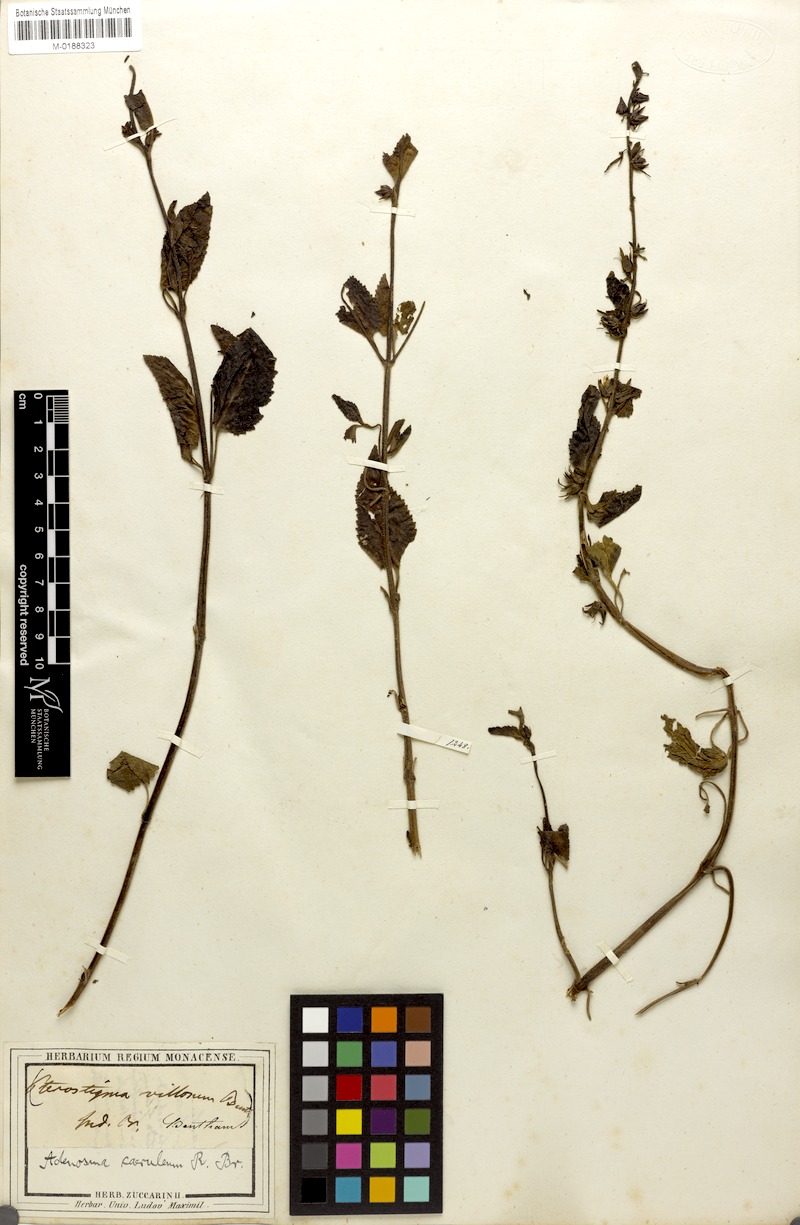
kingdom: Plantae
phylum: Tracheophyta
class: Magnoliopsida
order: Lamiales
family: Plantaginaceae
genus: Adenosma
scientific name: Adenosma glutinosa
